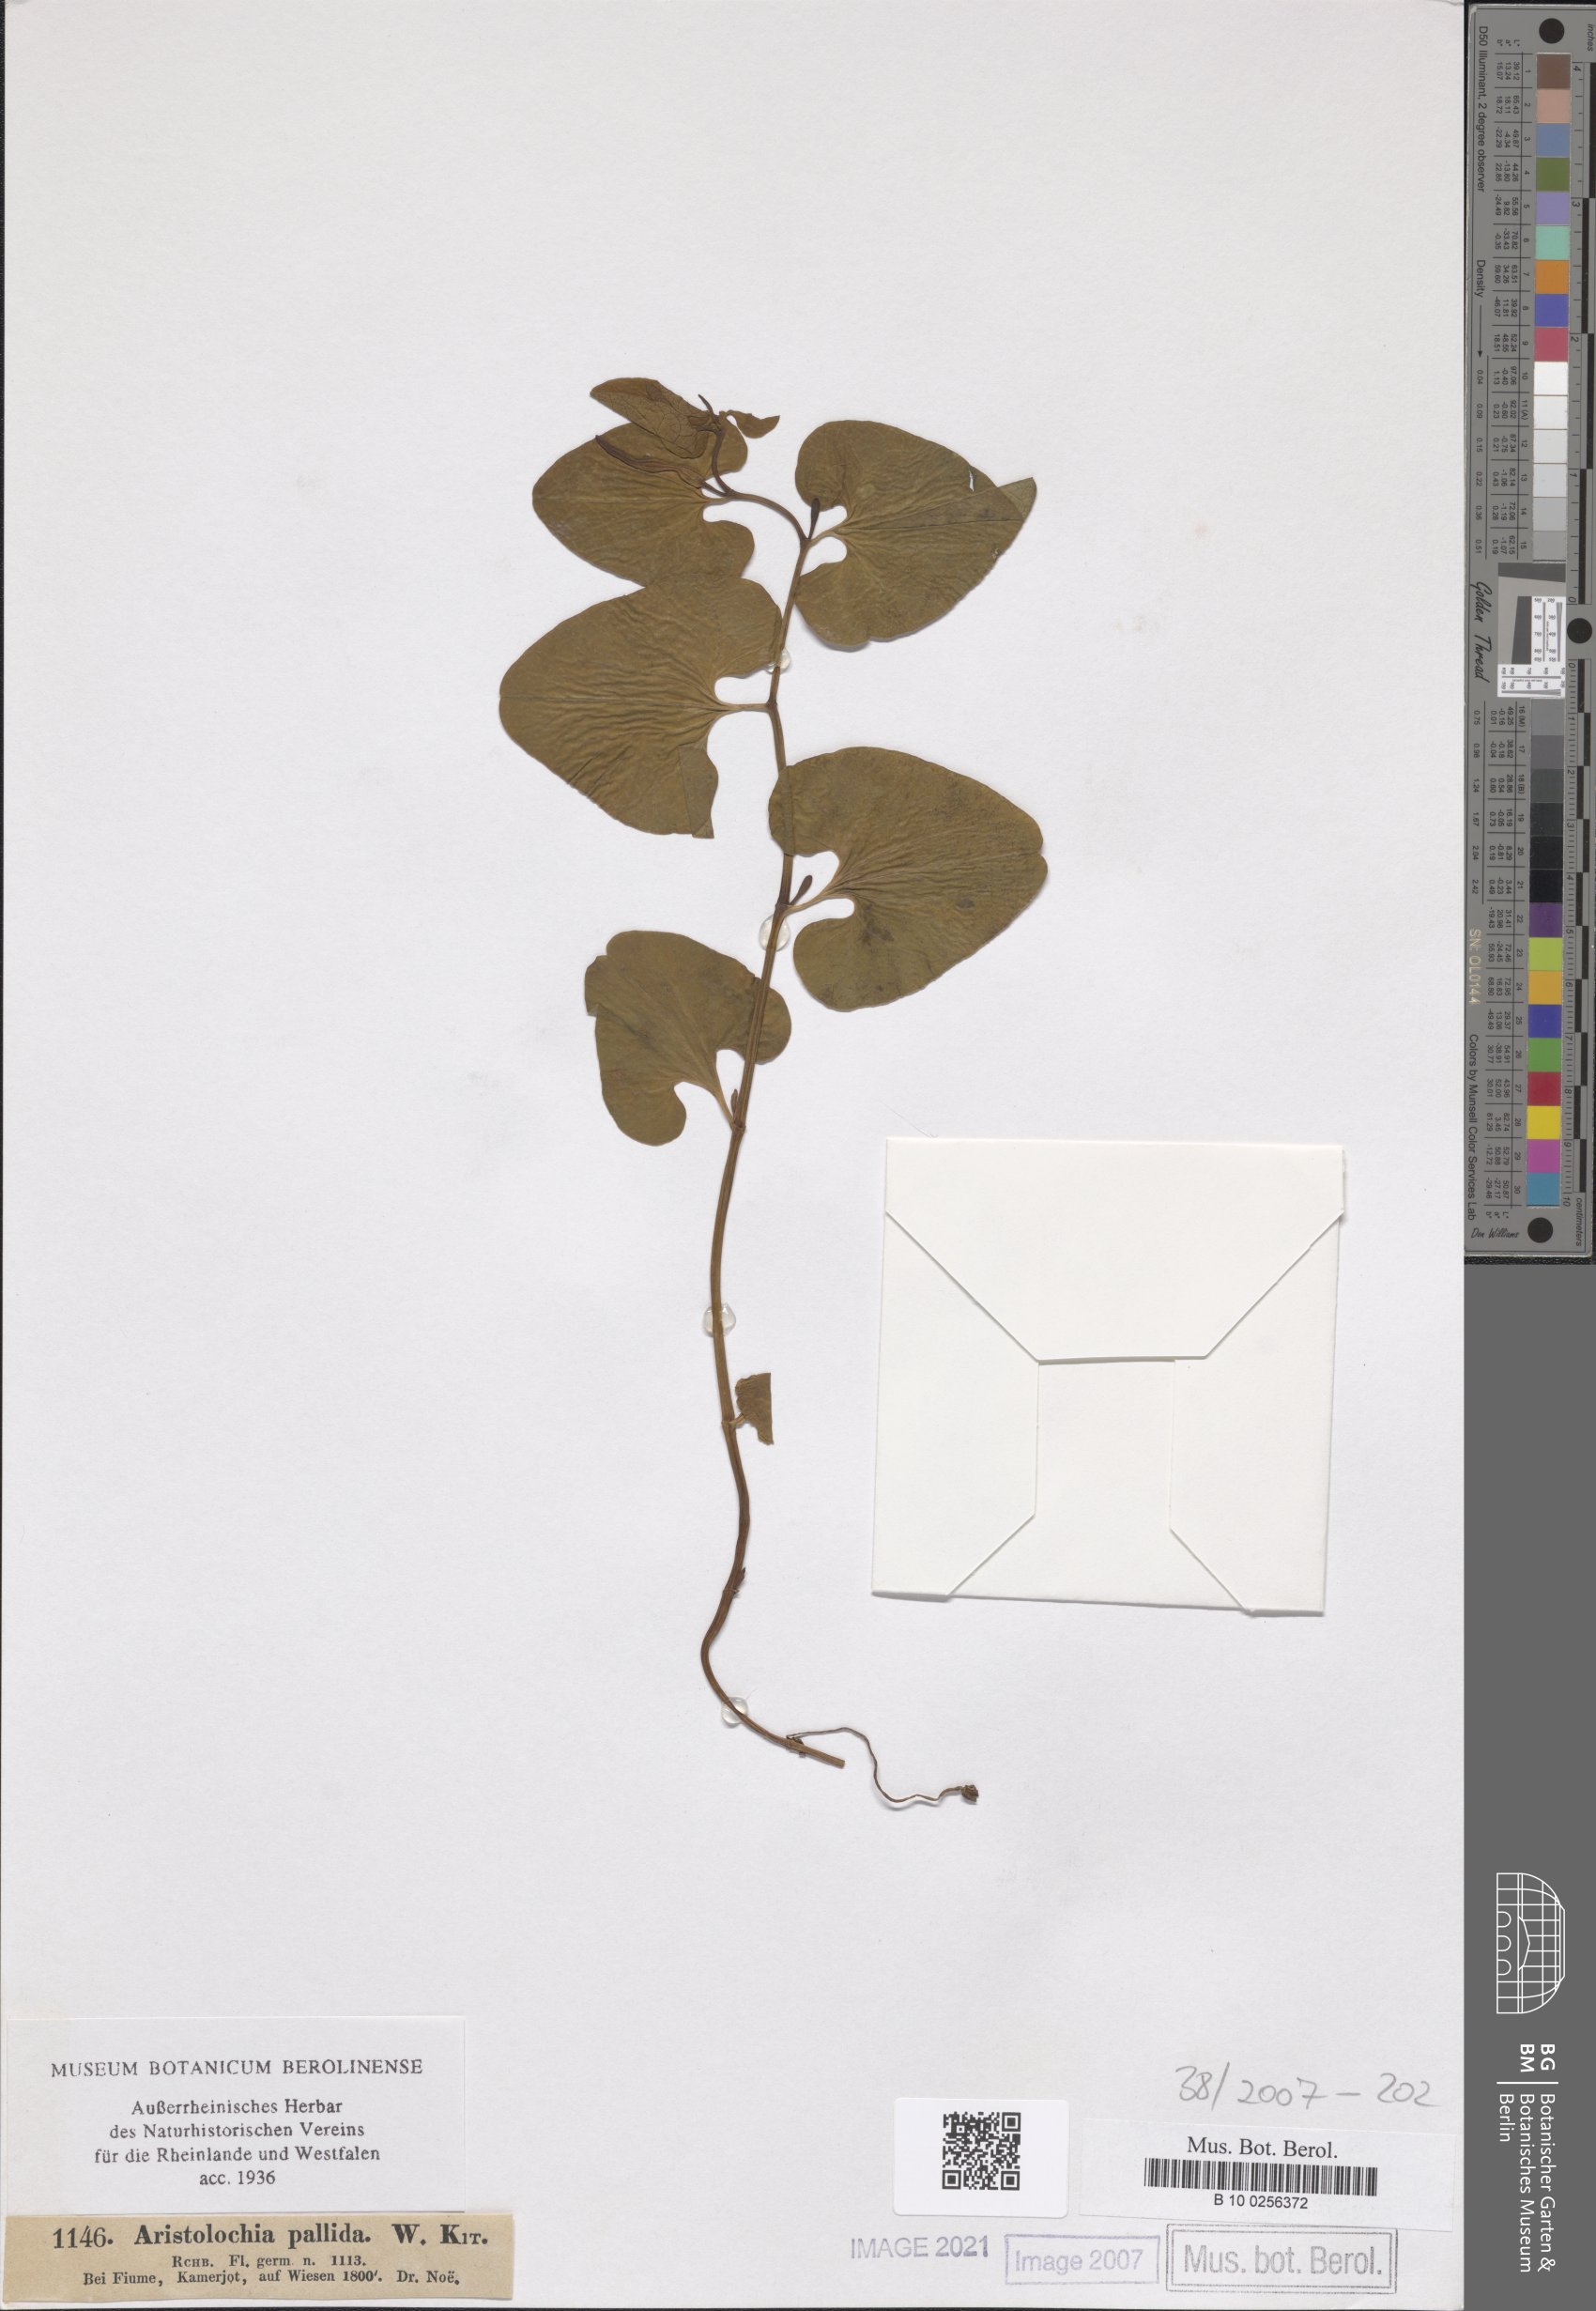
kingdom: Plantae
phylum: Tracheophyta
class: Magnoliopsida
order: Piperales
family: Aristolochiaceae
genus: Aristolochia
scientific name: Aristolochia pallida
